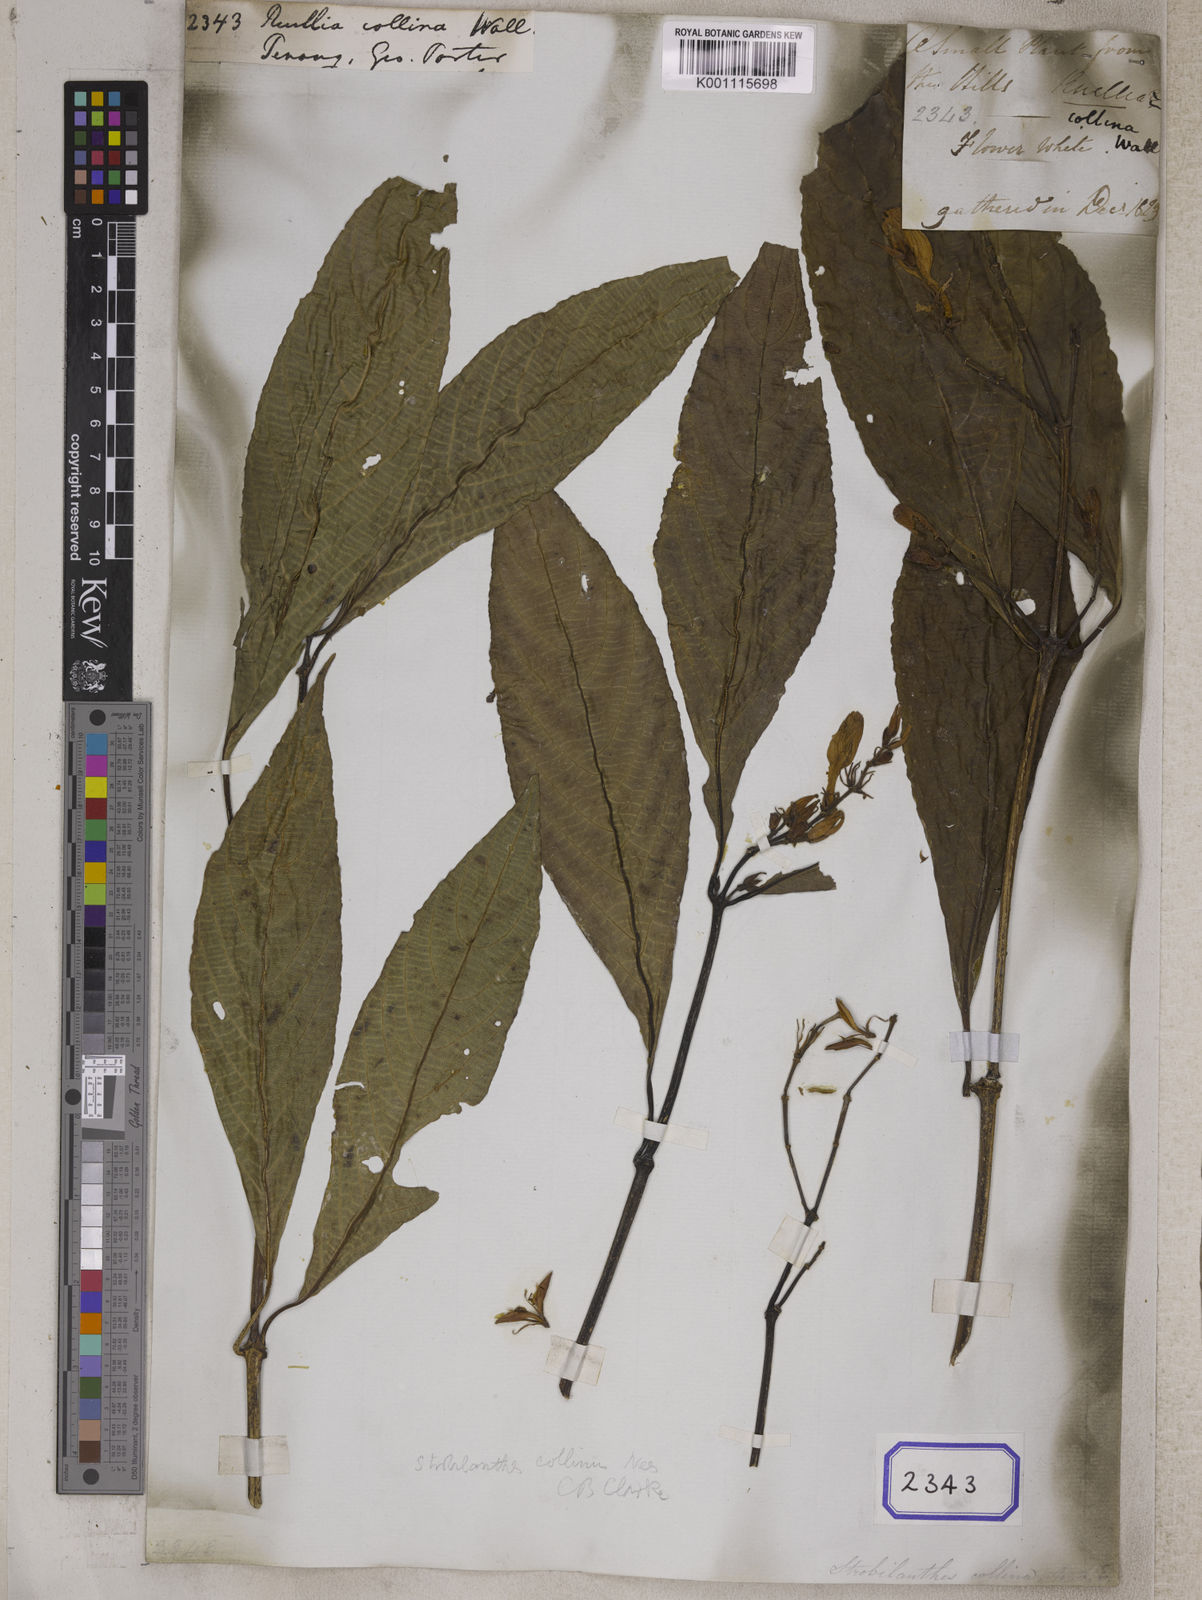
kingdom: Plantae
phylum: Tracheophyta
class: Magnoliopsida
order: Lamiales
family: Acanthaceae
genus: Strobilanthes
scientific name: Strobilanthes collina
